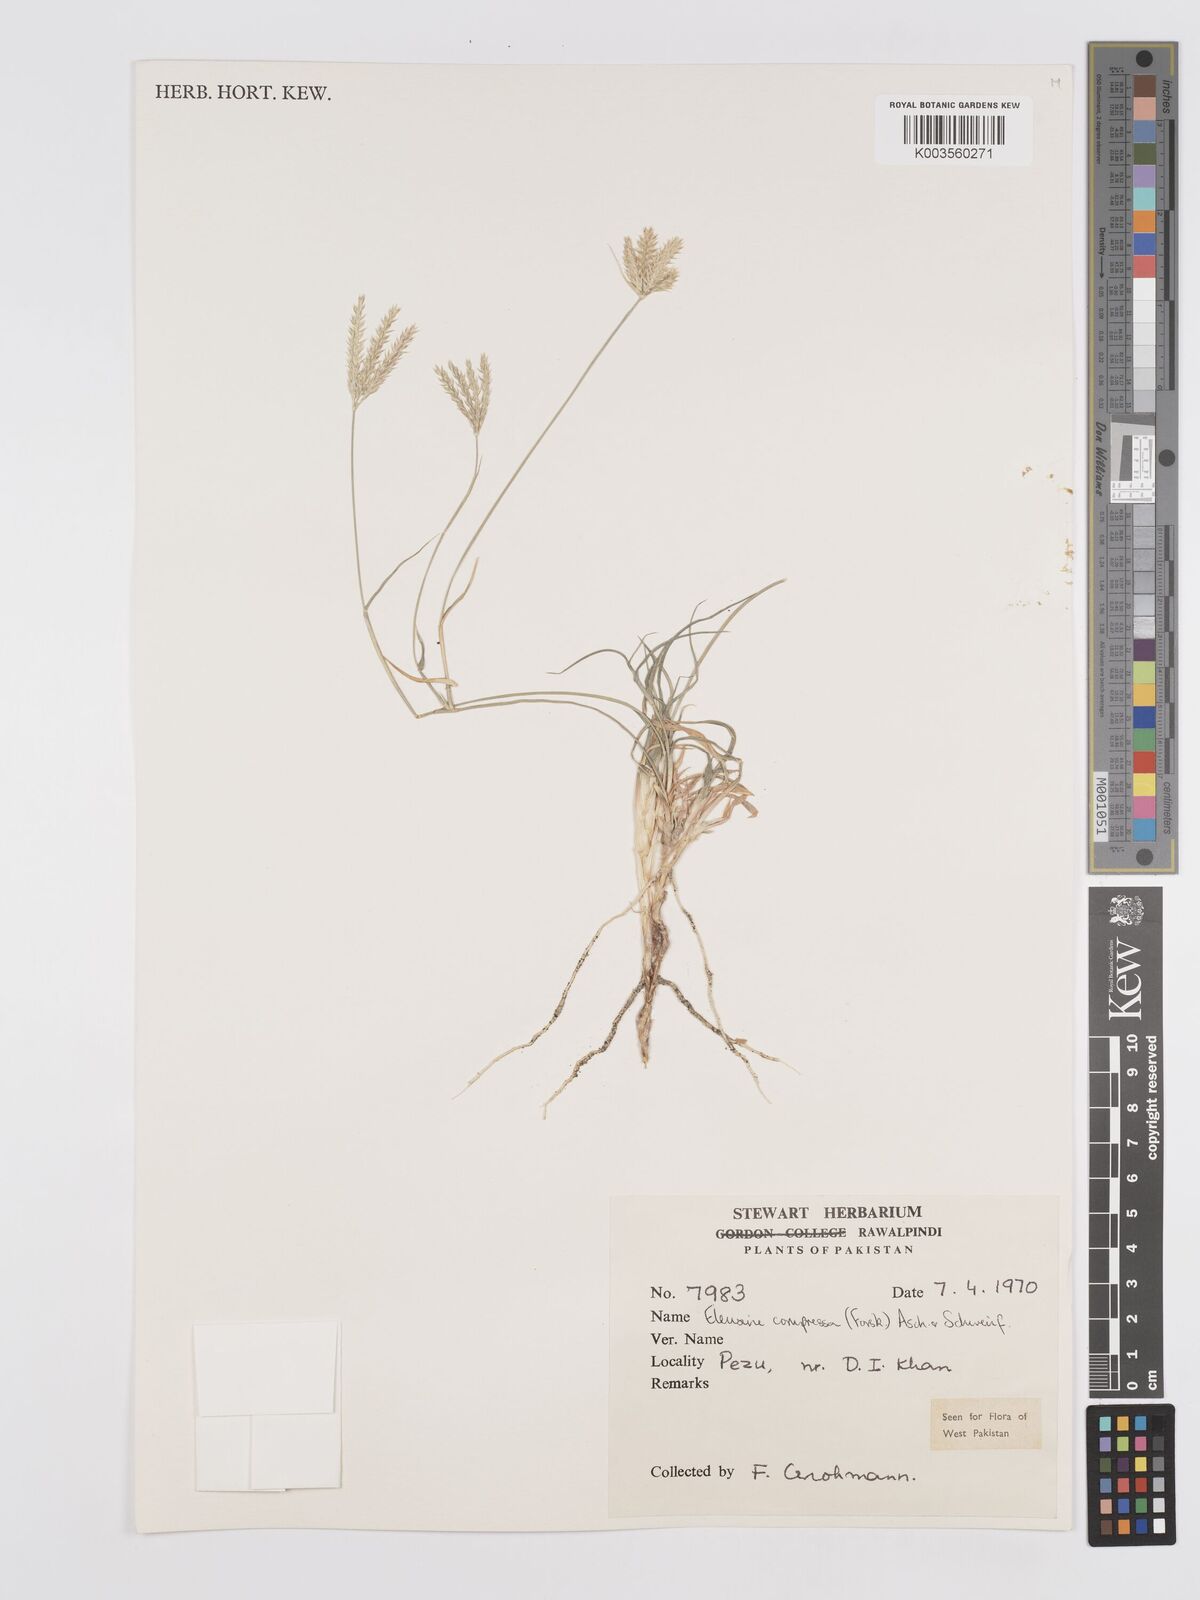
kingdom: Plantae
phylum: Tracheophyta
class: Liliopsida
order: Poales
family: Poaceae
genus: Chloris
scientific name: Chloris flagellifera
